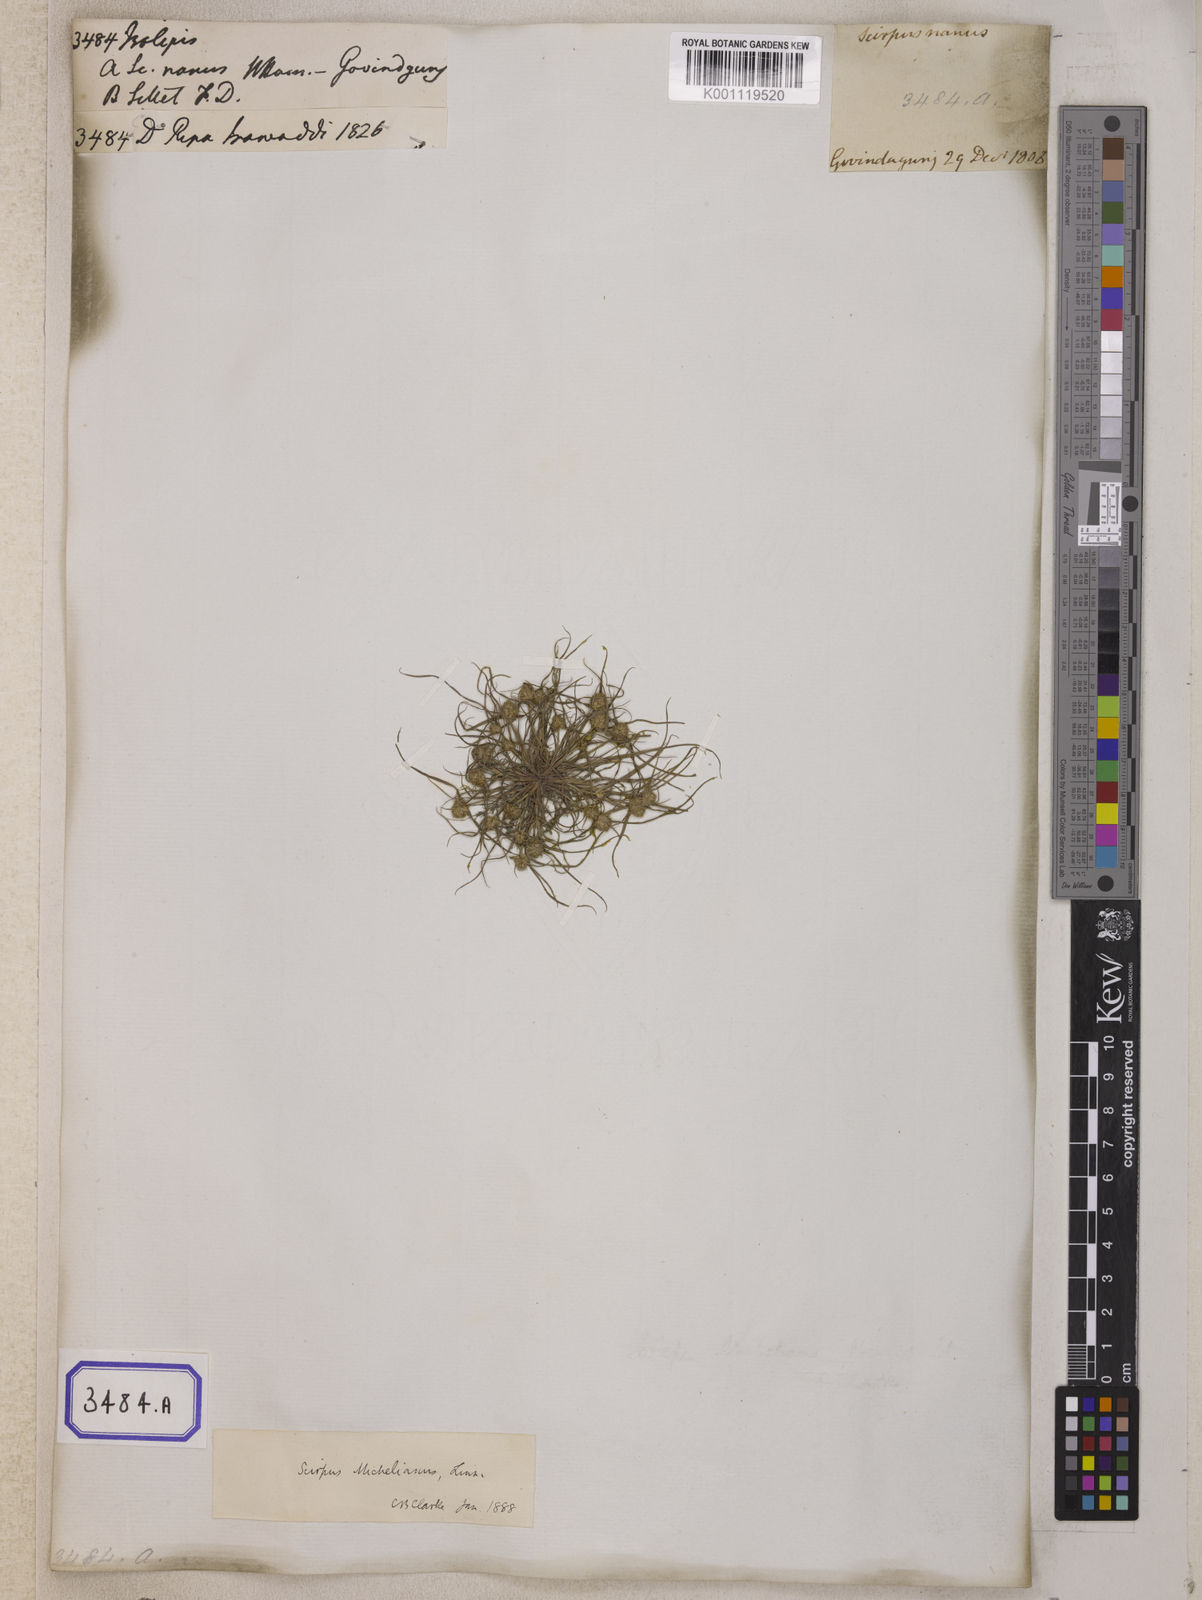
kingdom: Plantae
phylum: Tracheophyta
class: Liliopsida
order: Poales
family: Cyperaceae
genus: Isolepis
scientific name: Isolepis
